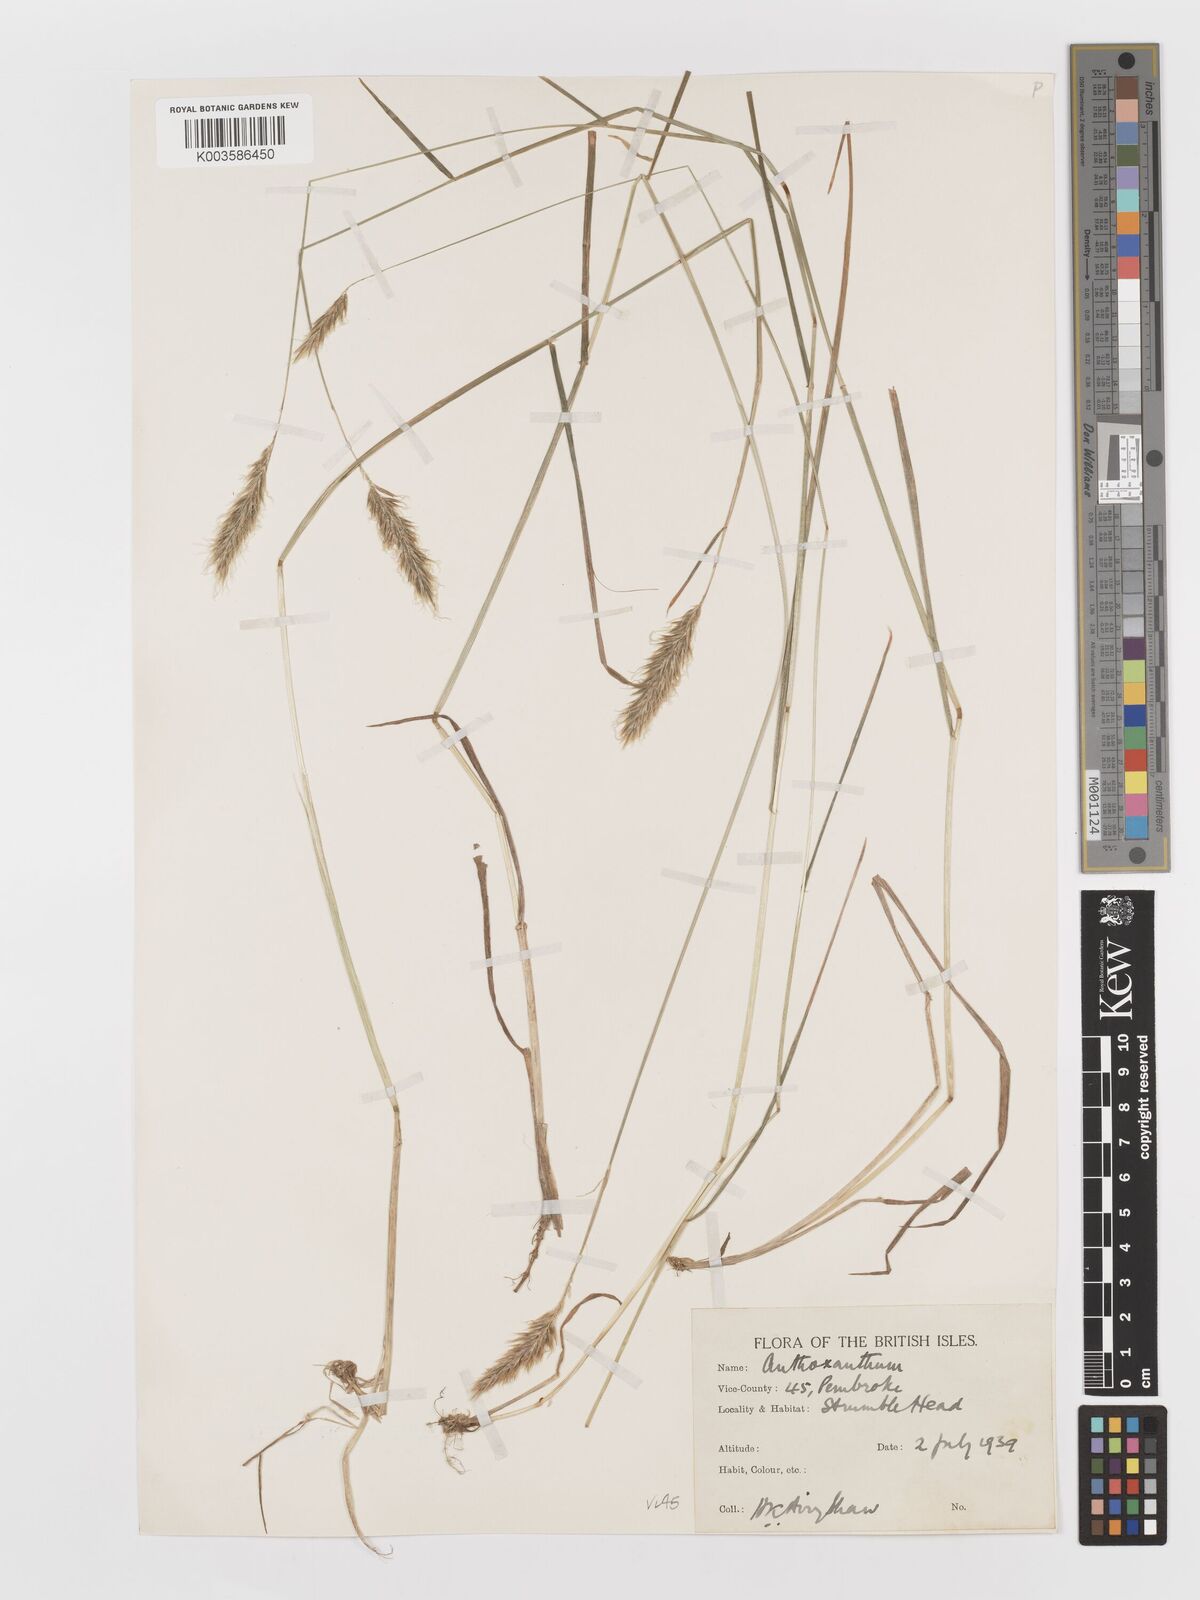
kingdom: Plantae
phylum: Tracheophyta
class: Liliopsida
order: Poales
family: Poaceae
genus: Anthoxanthum
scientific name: Anthoxanthum odoratum
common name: Sweet vernalgrass
